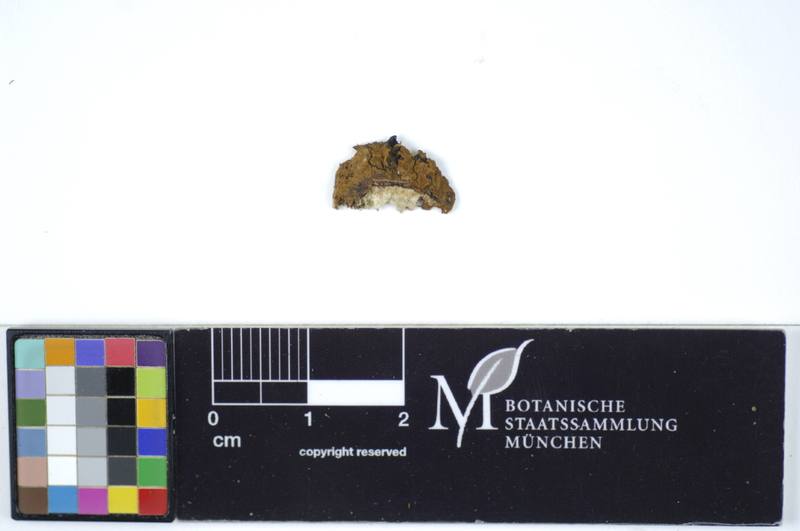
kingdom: Fungi
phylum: Basidiomycota
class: Agaricomycetes
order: Hymenochaetales
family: Hymenochaetaceae
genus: Hymenochaete
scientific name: Hymenochaete cinnamomea
